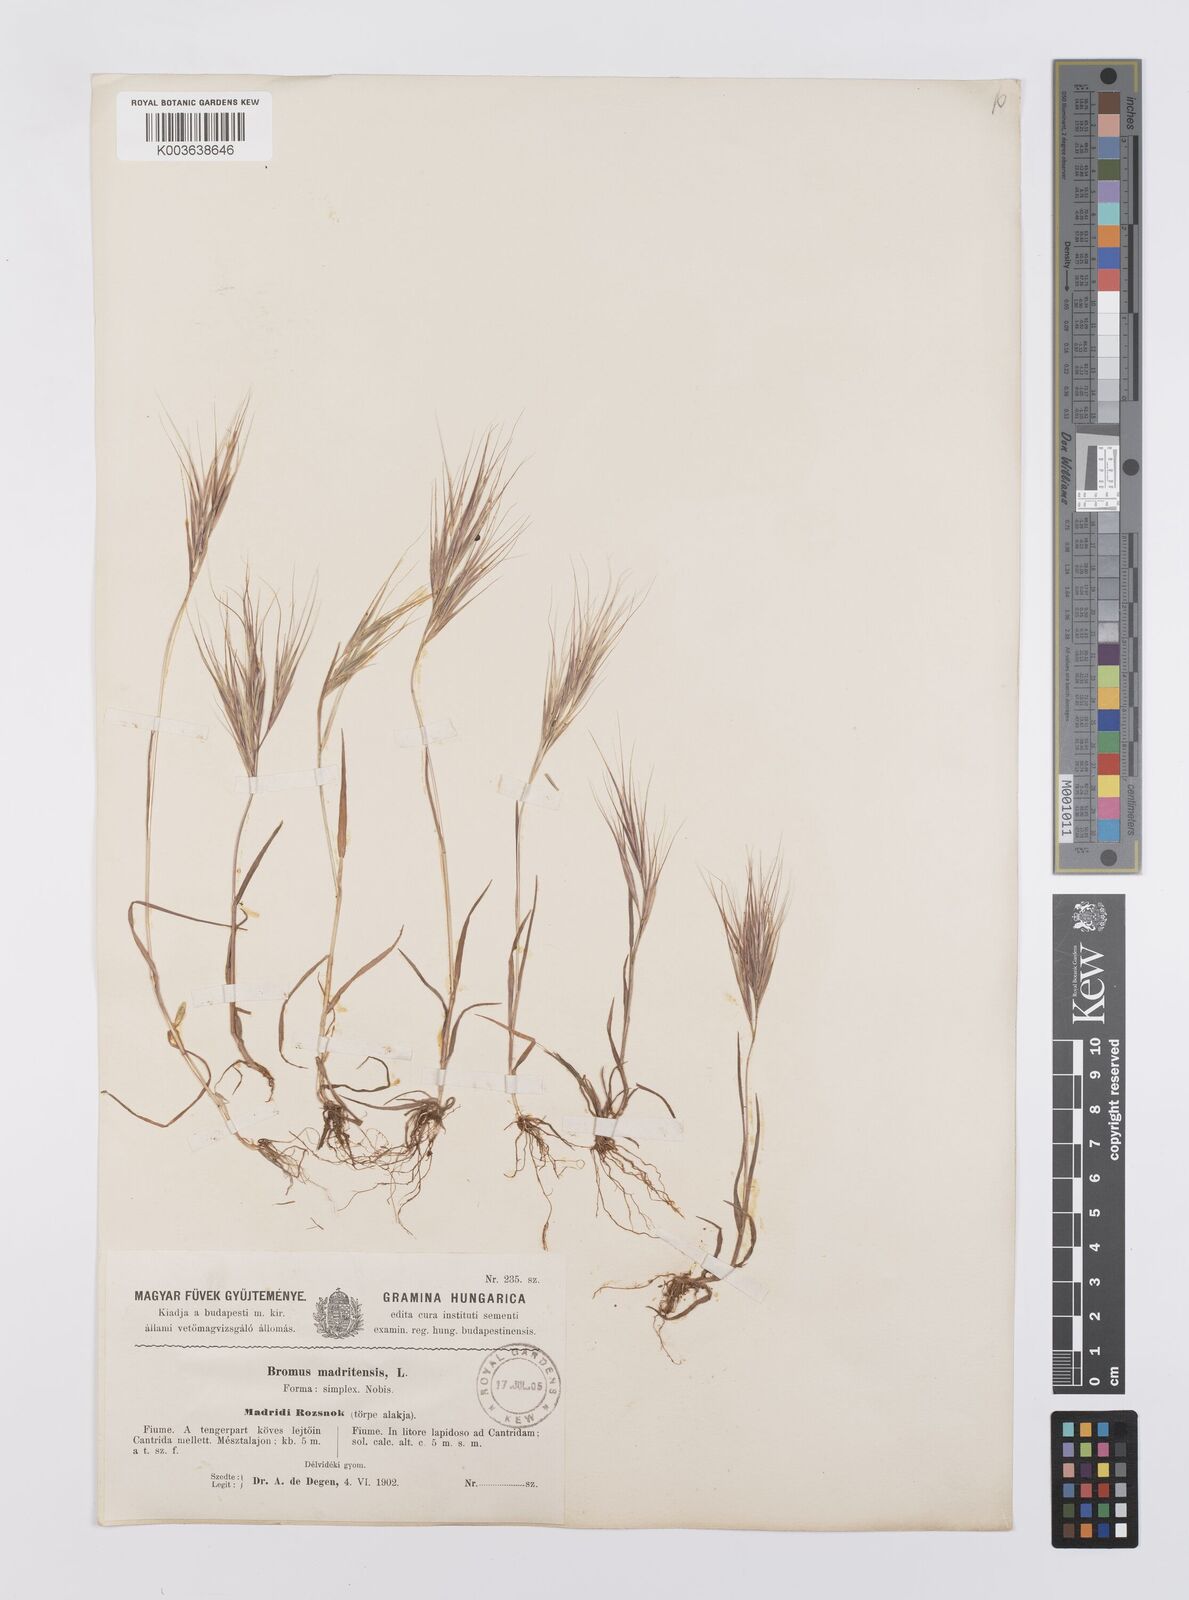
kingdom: Plantae
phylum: Tracheophyta
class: Liliopsida
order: Poales
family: Poaceae
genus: Bromus
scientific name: Bromus madritensis
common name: Compact brome
